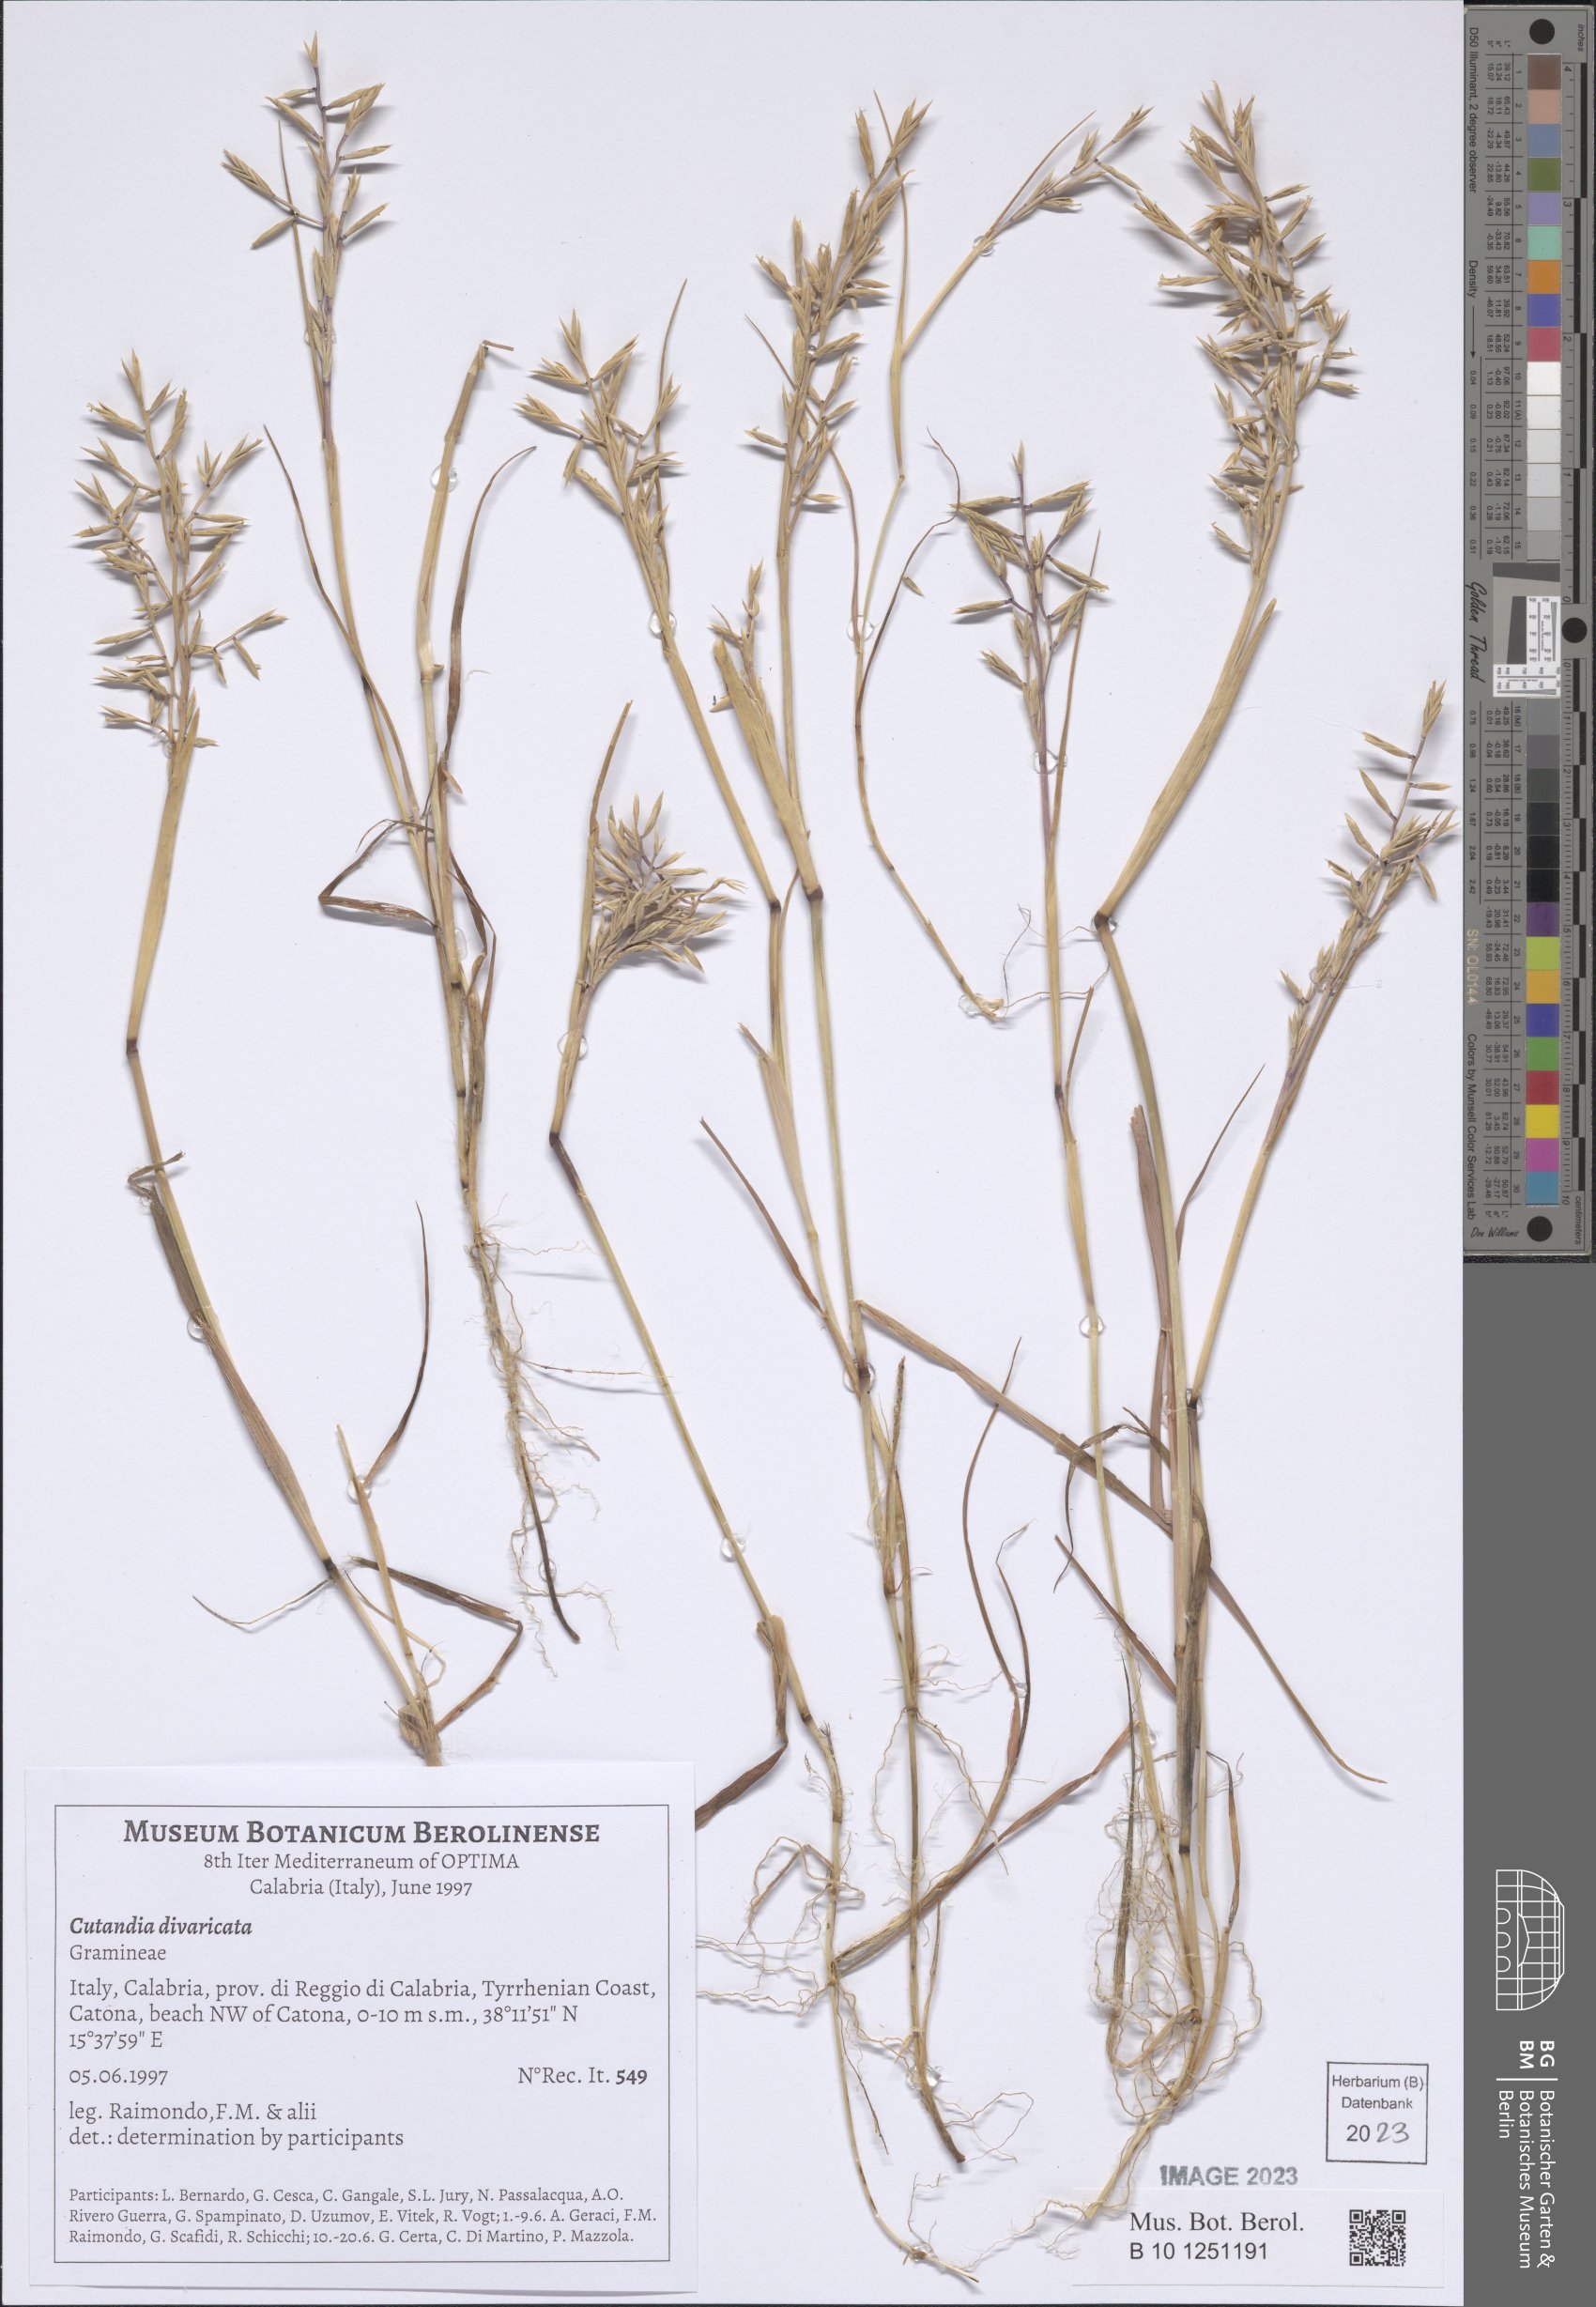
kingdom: Plantae
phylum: Tracheophyta
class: Liliopsida
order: Poales
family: Poaceae
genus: Cutandia
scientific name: Cutandia divaricata
